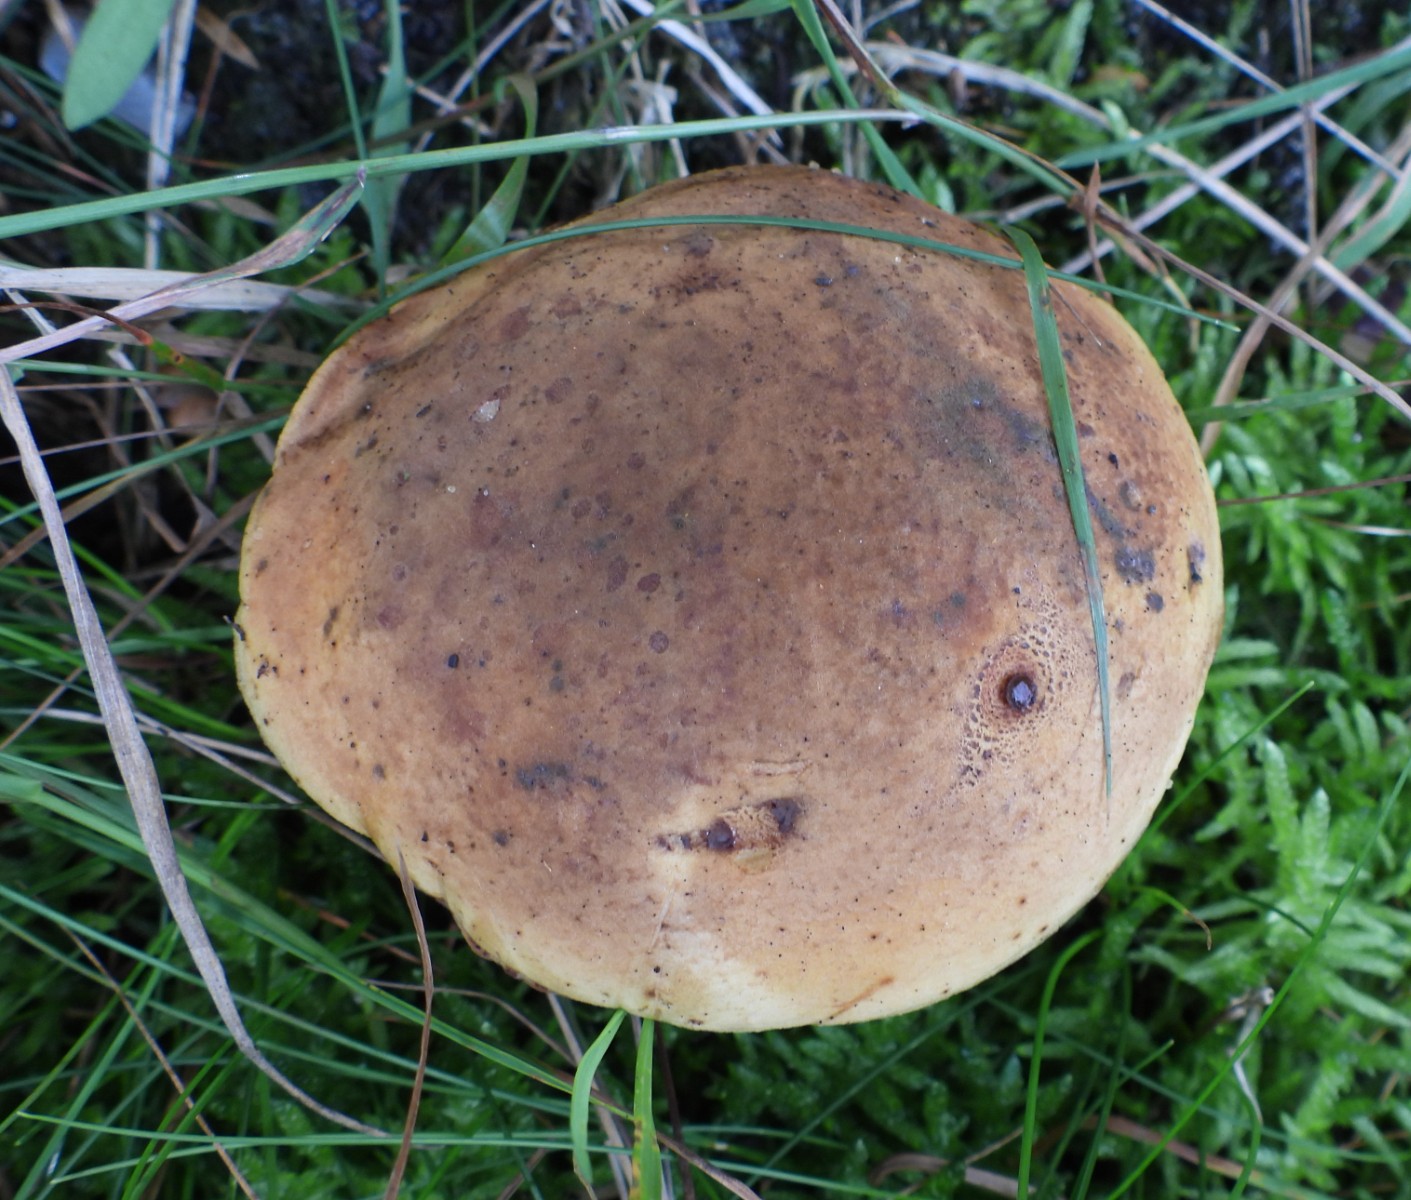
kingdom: Fungi
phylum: Basidiomycota
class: Agaricomycetes
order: Boletales
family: Boletaceae
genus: Neoboletus
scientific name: Neoboletus erythropus
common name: punktstokket indigorørhat
